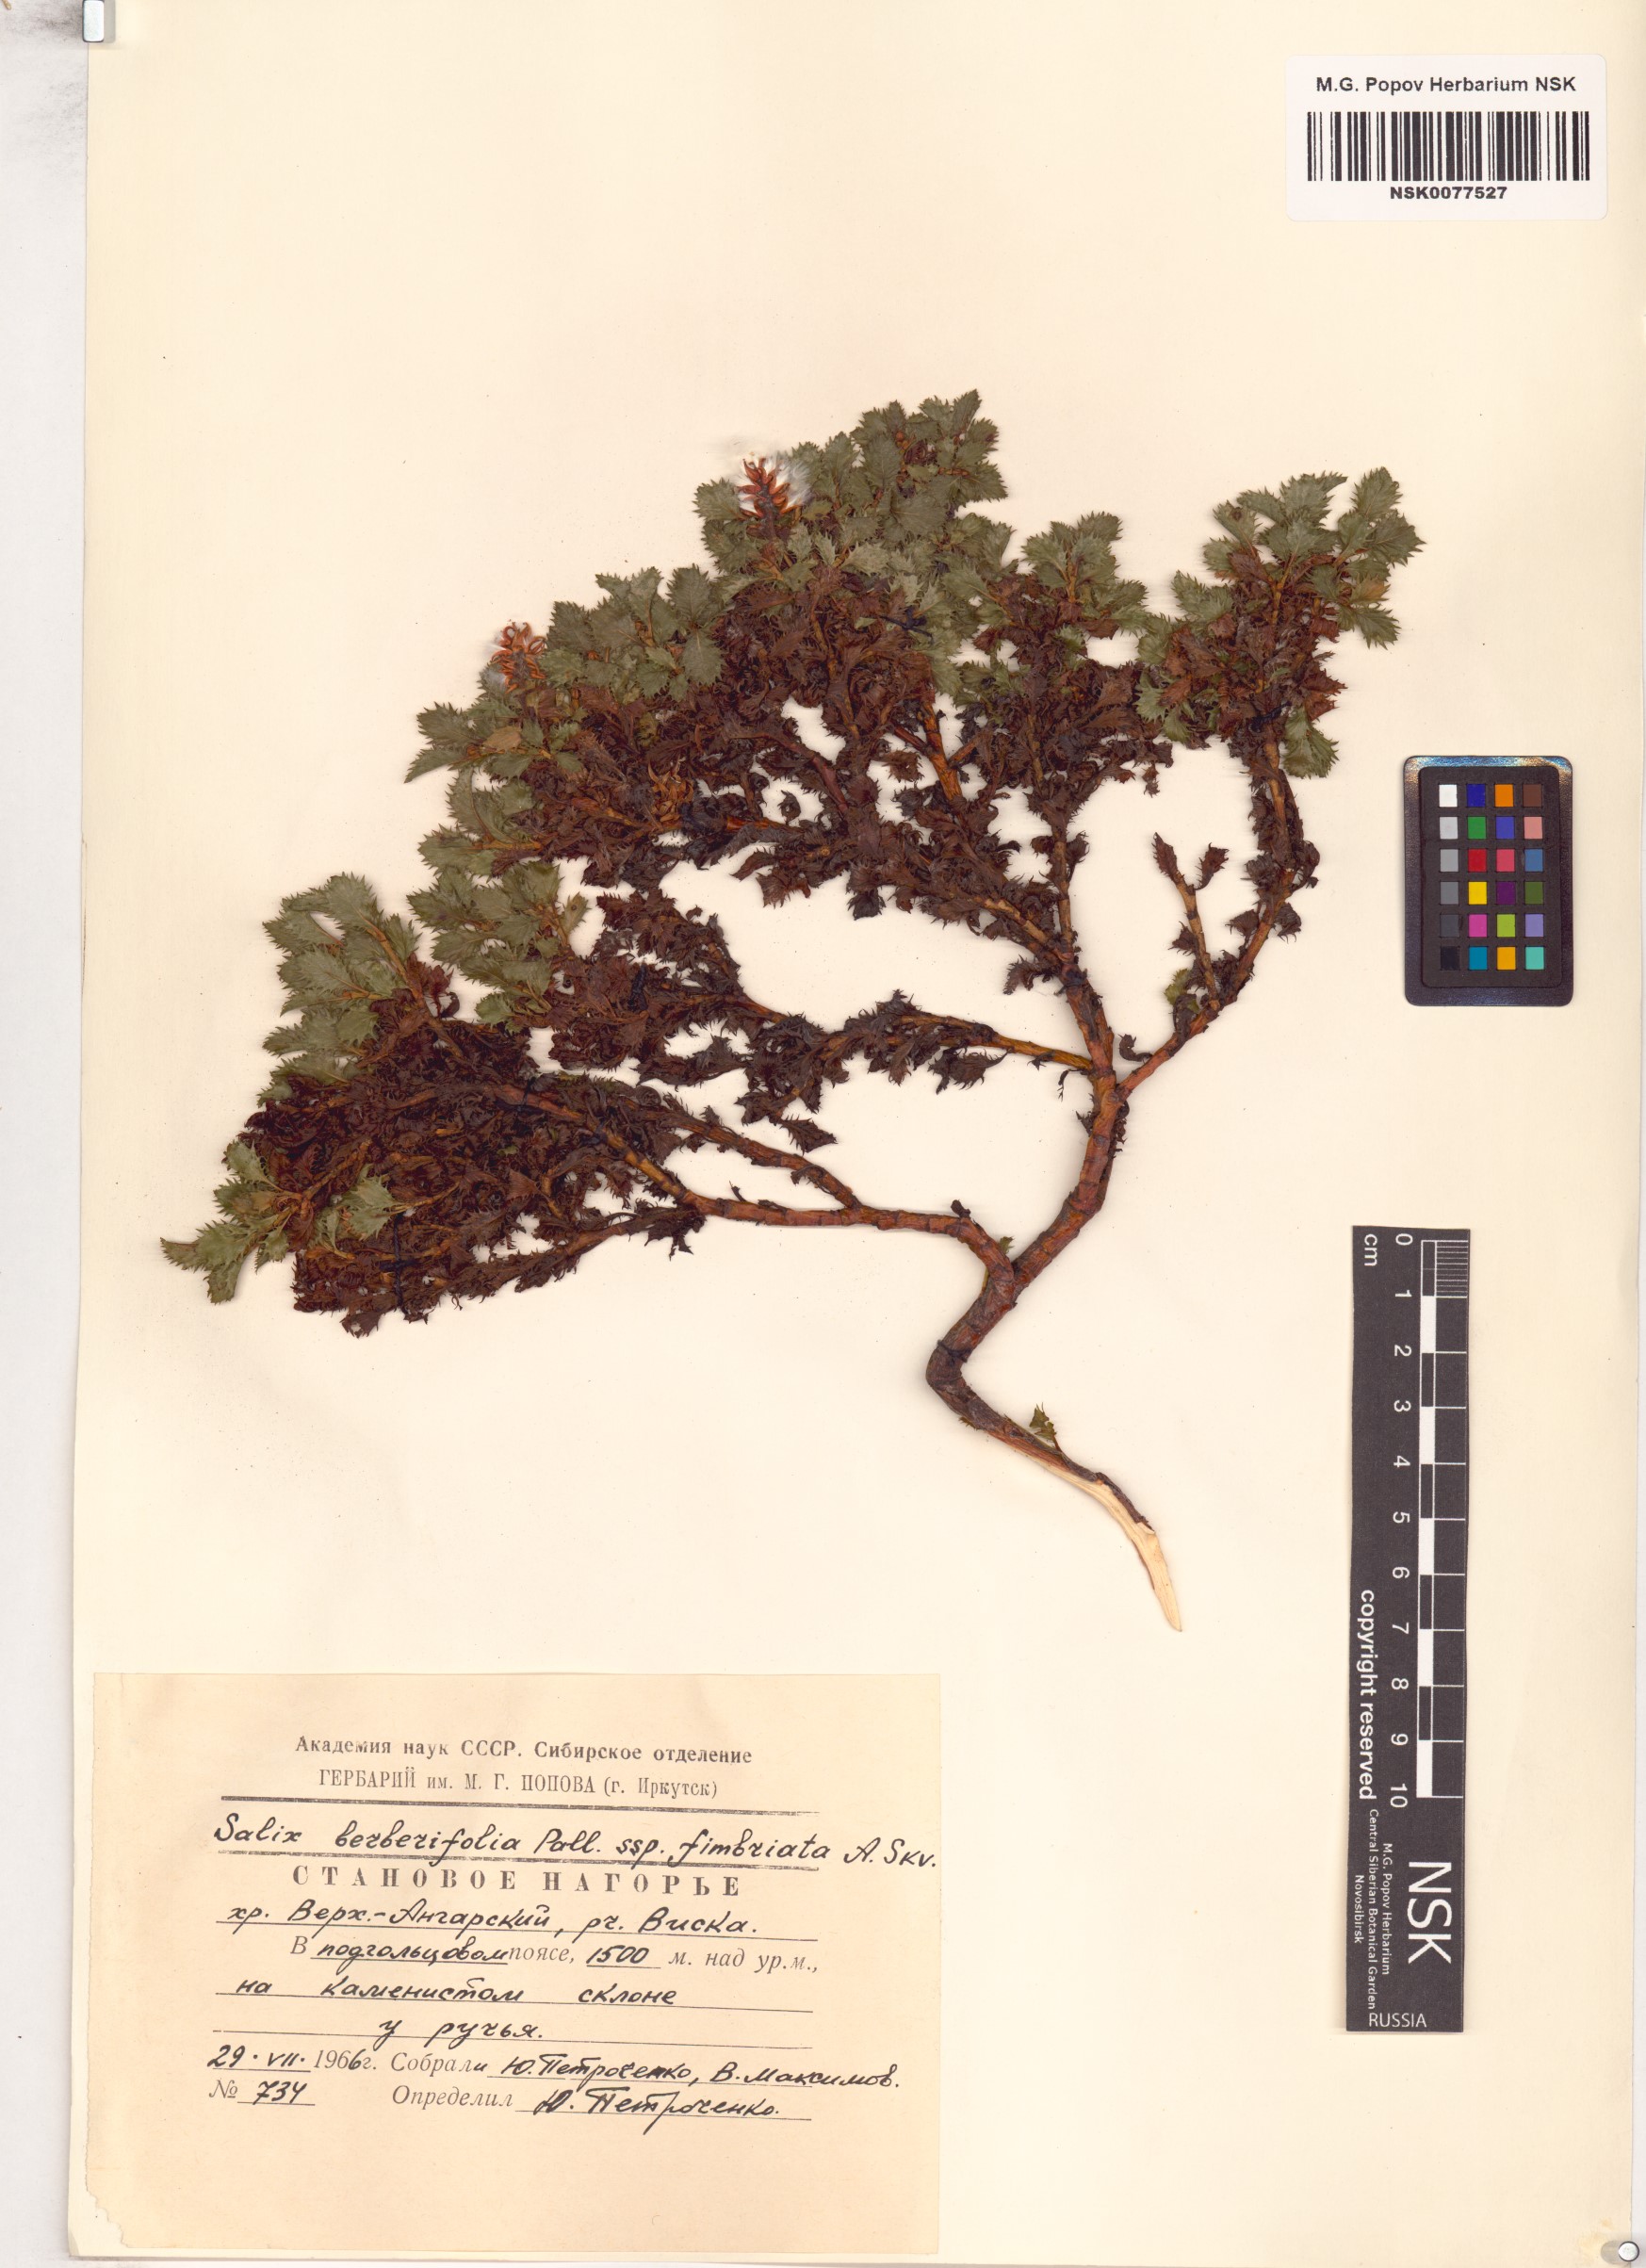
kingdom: Plantae
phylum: Tracheophyta
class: Magnoliopsida
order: Malpighiales
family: Salicaceae
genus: Salix
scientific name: Salix berberifolia
